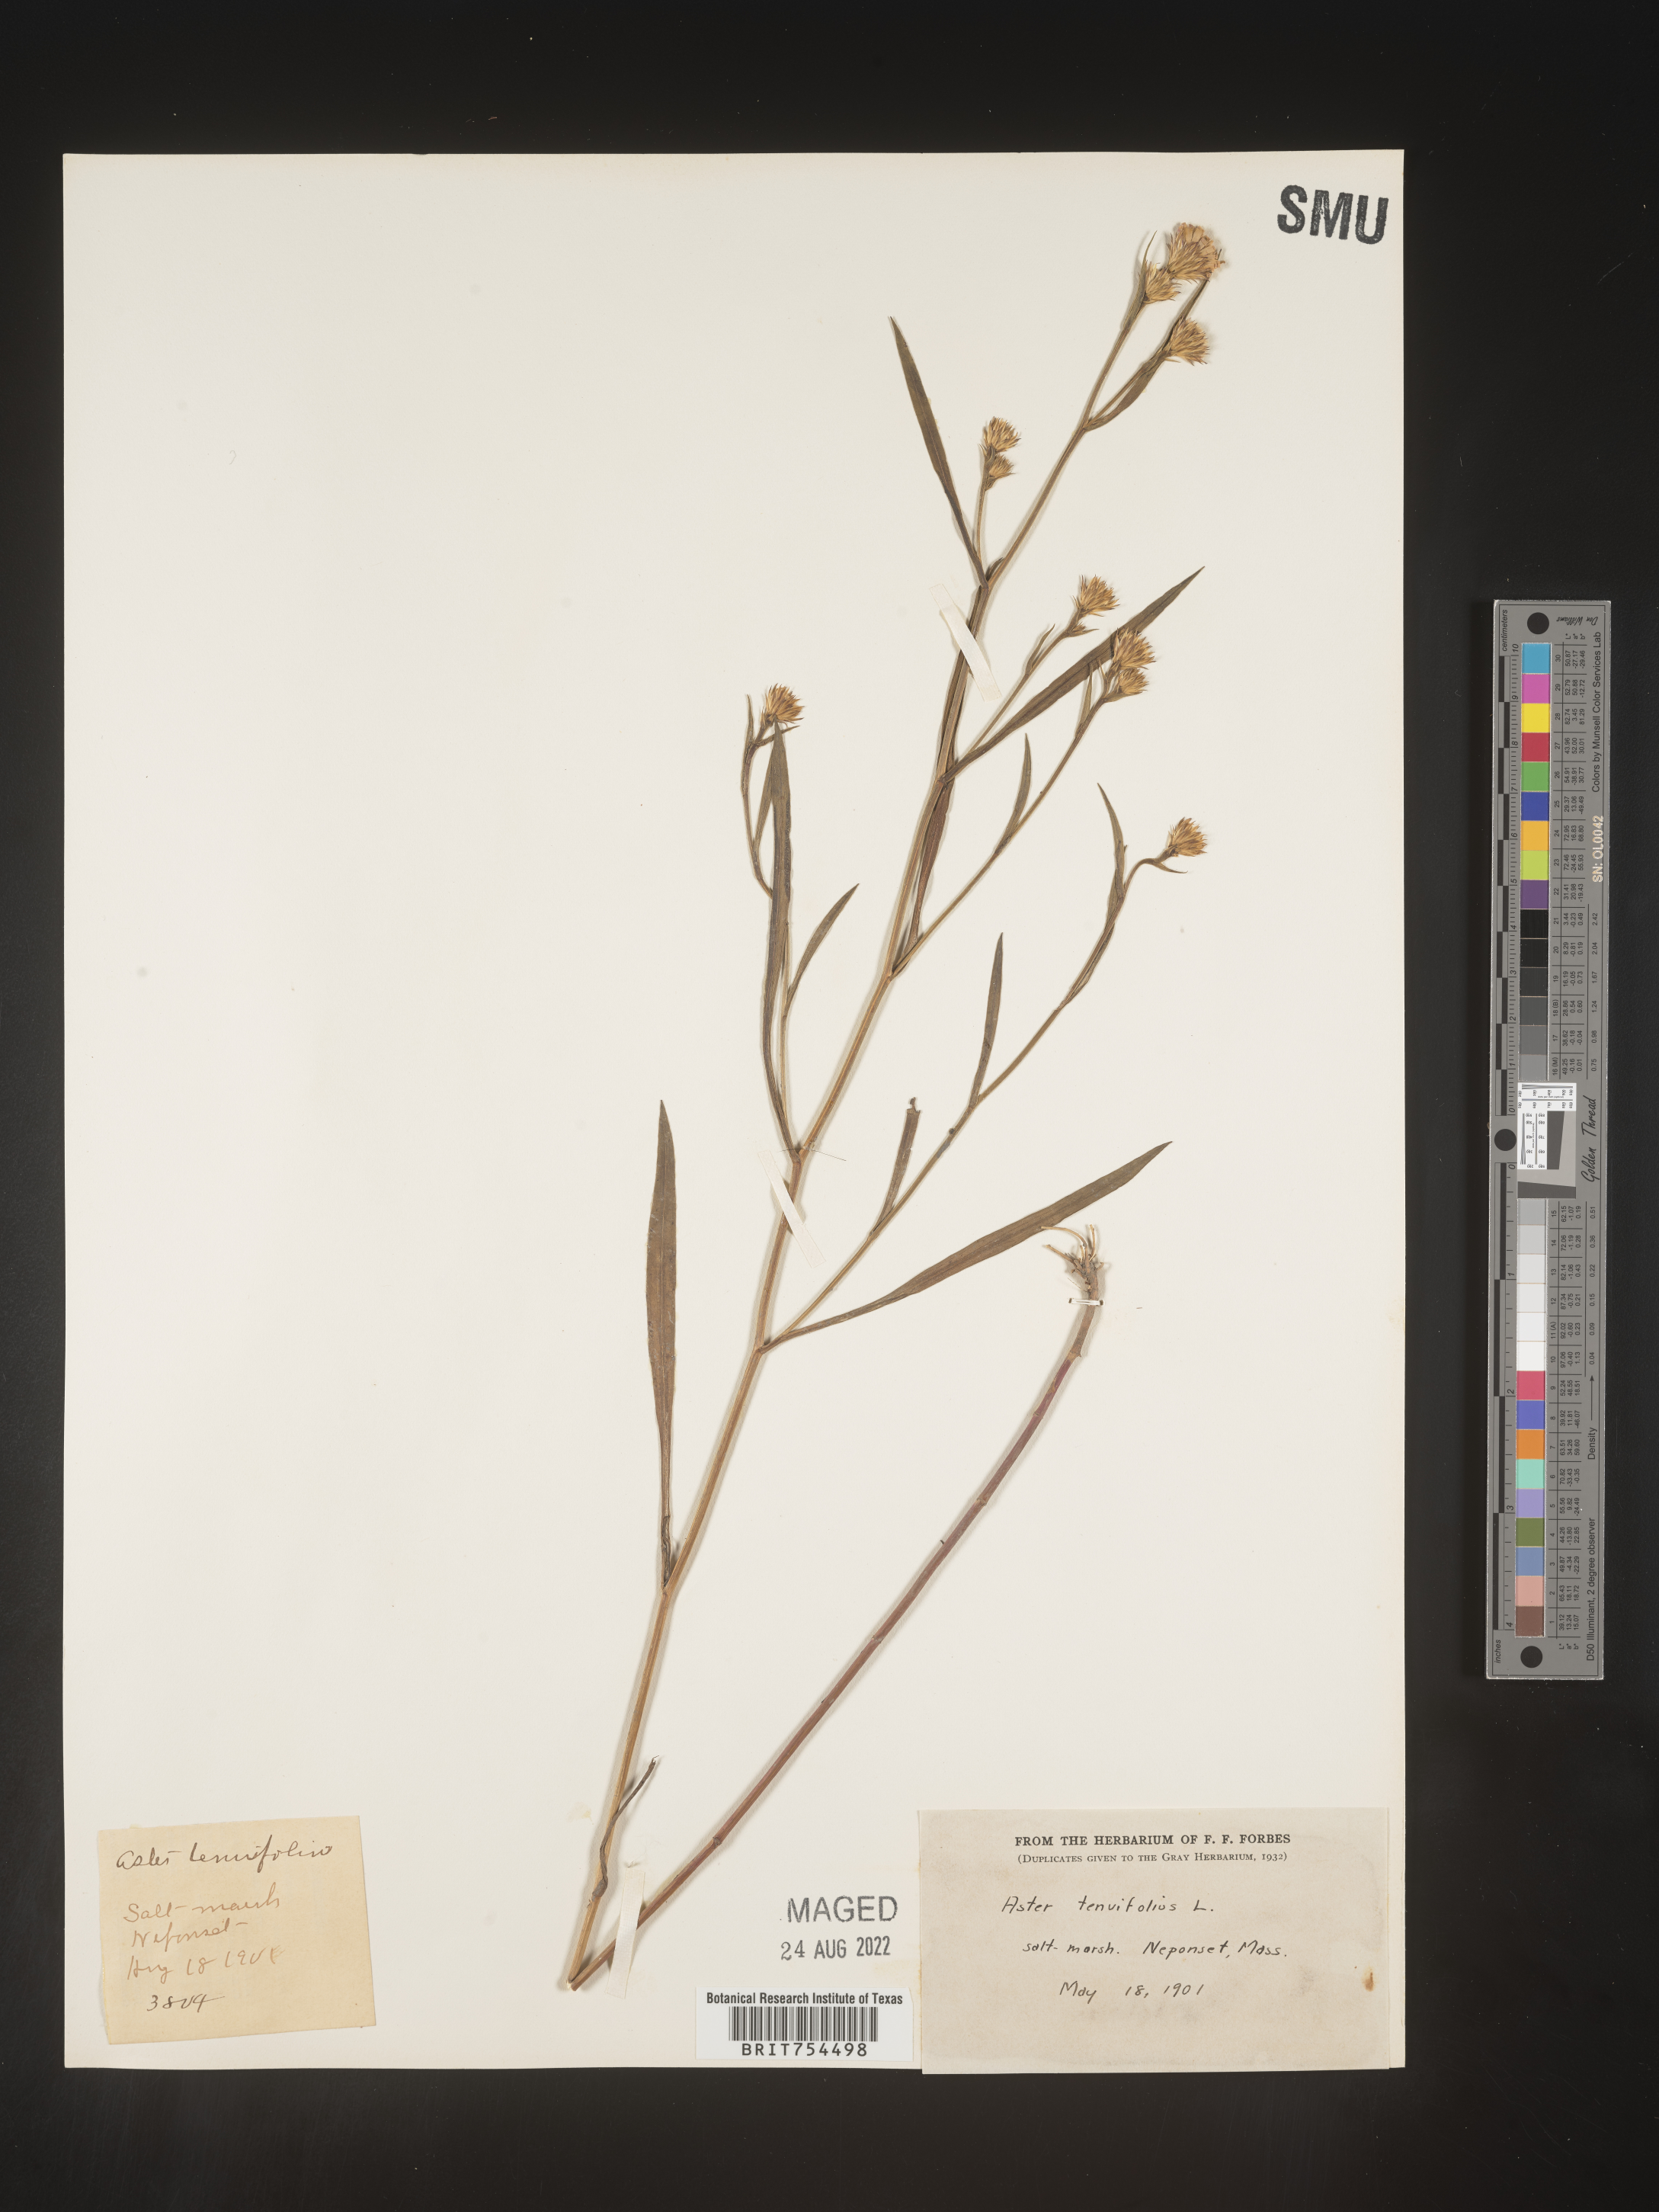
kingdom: Plantae
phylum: Tracheophyta
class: Magnoliopsida
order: Asterales
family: Asteraceae
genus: Symphyotrichum
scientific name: Symphyotrichum tenuifolium
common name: Perennial salt-marsh aster
